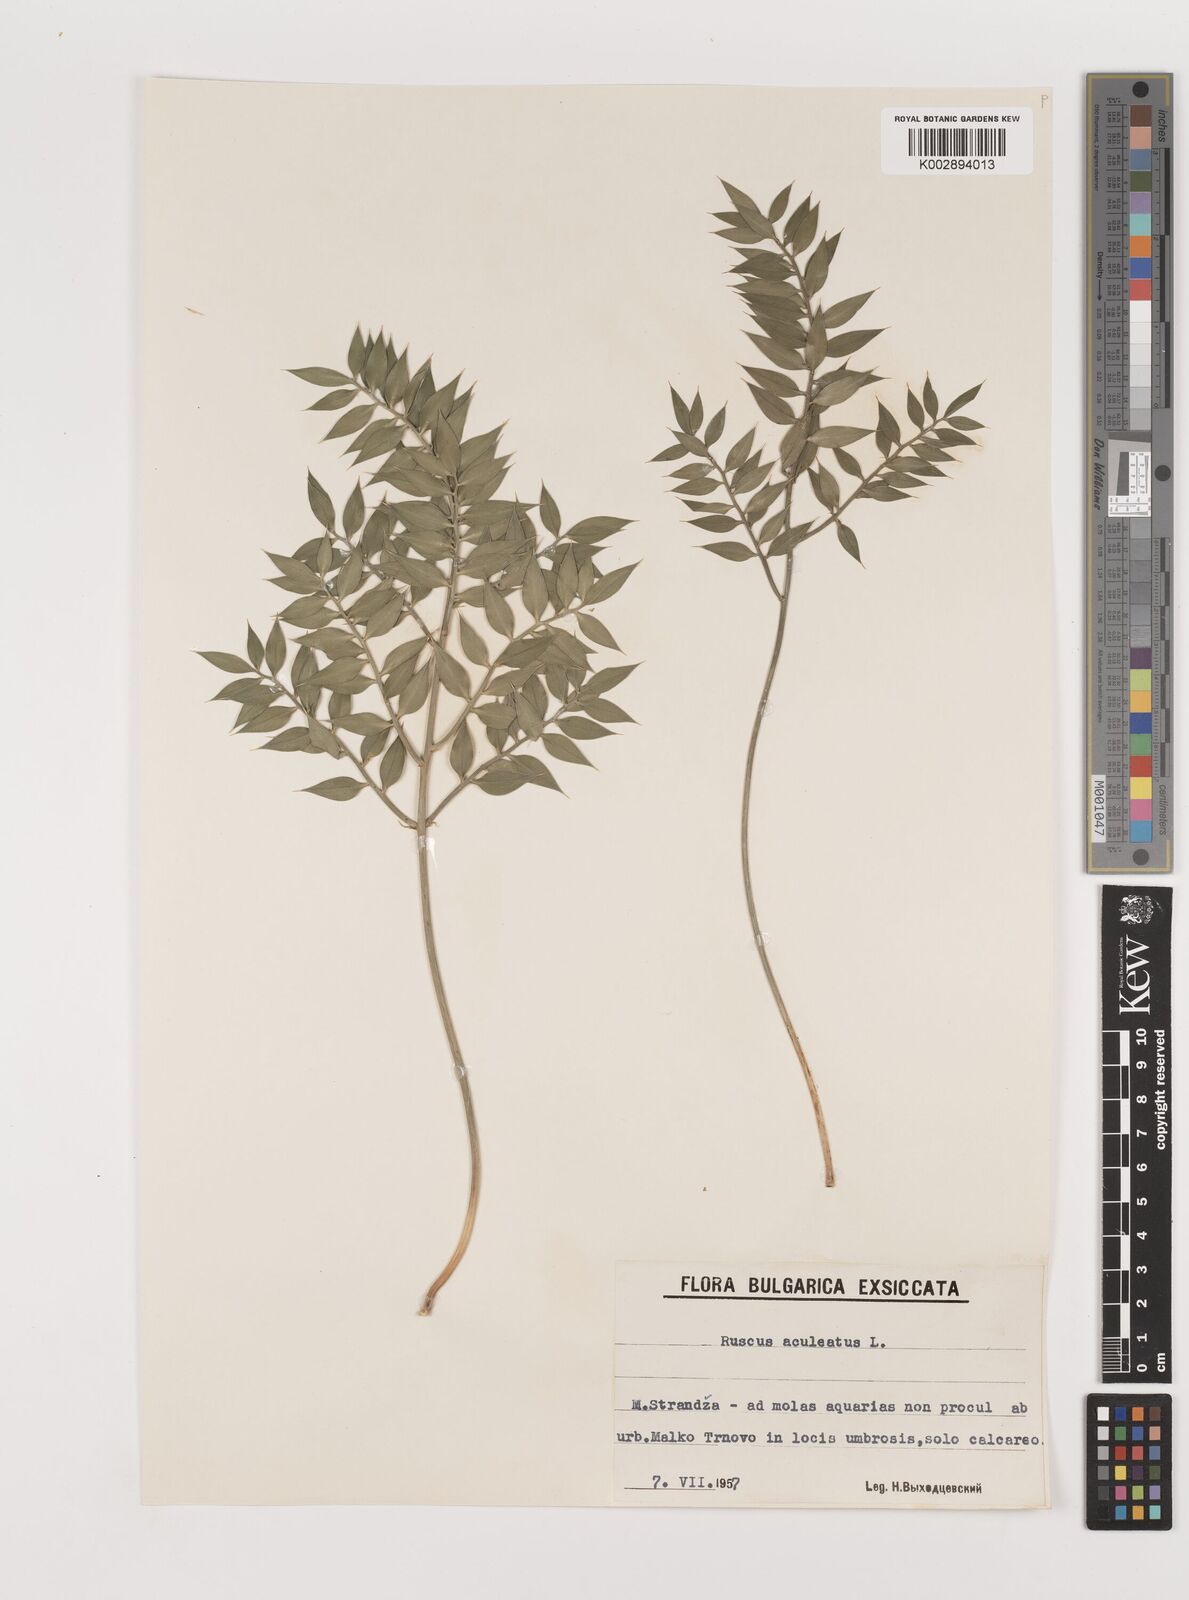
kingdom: Plantae
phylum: Tracheophyta
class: Liliopsida
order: Asparagales
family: Asparagaceae
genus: Ruscus
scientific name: Ruscus aculeatus
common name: Butcher's-broom
